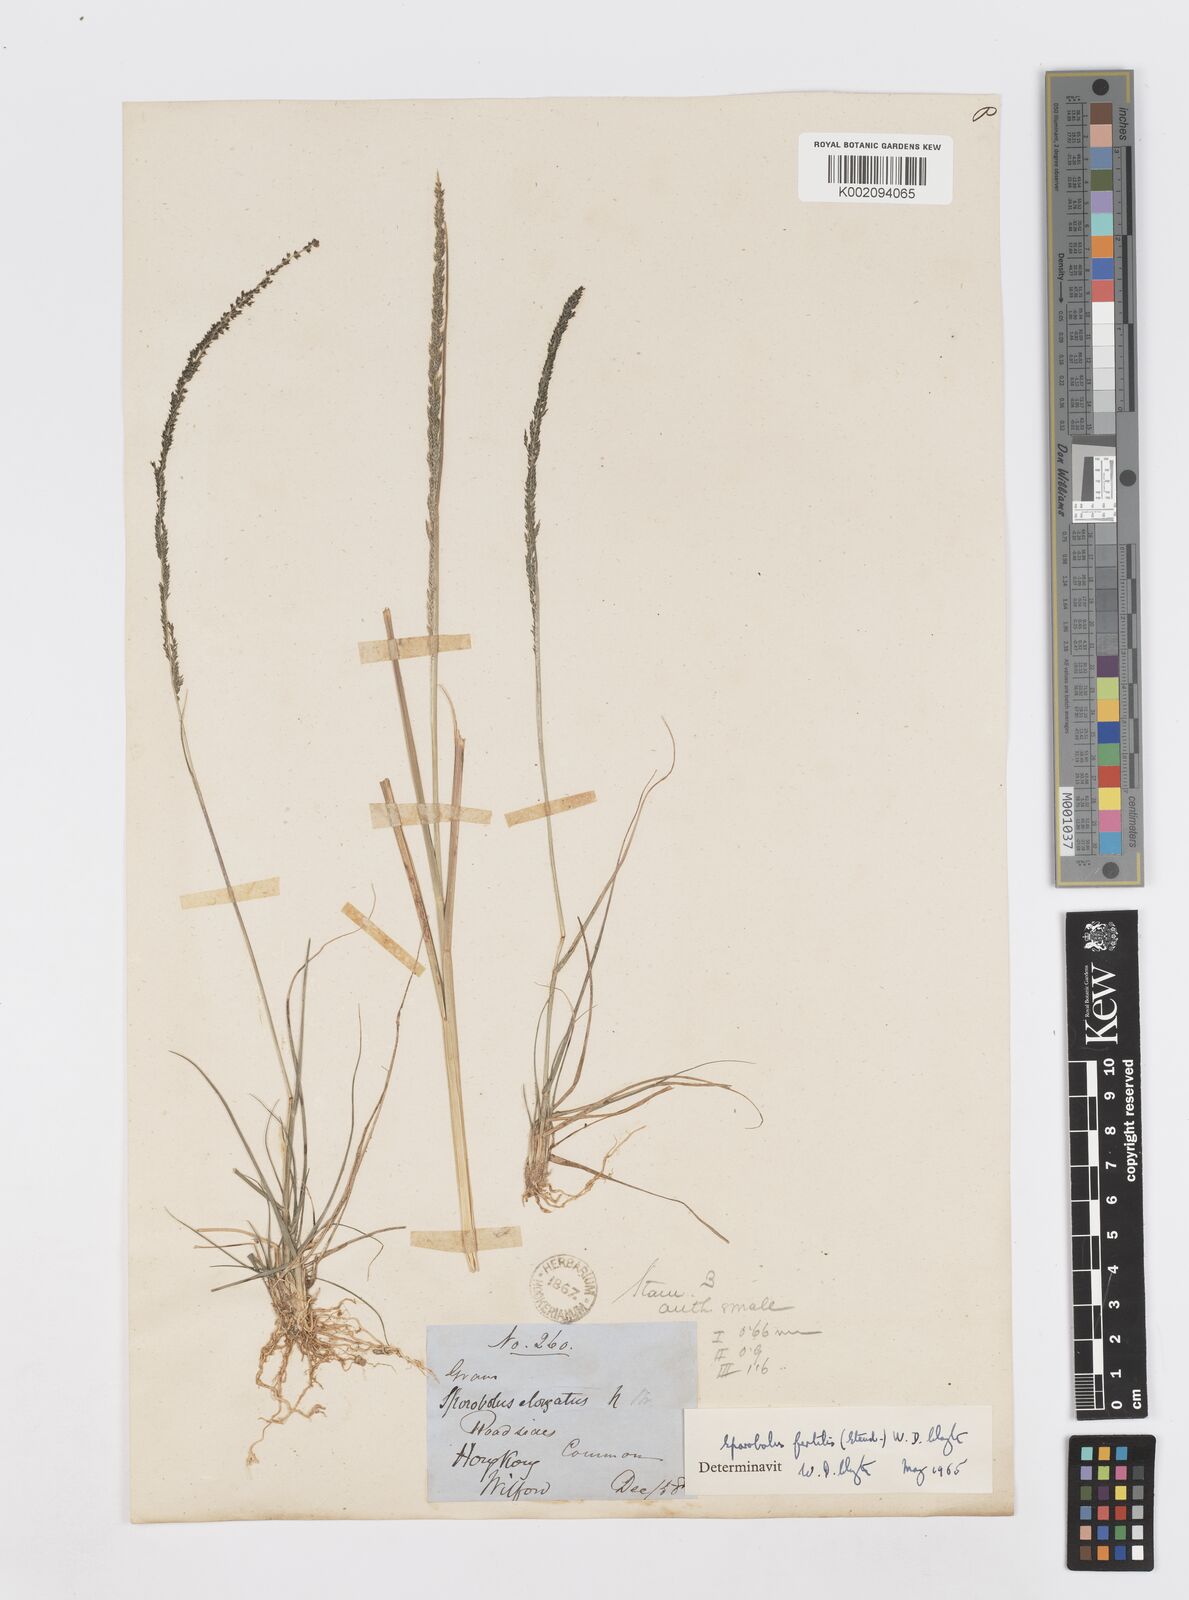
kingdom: Plantae
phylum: Tracheophyta
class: Liliopsida
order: Poales
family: Poaceae
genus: Sporobolus
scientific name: Sporobolus fertilis
